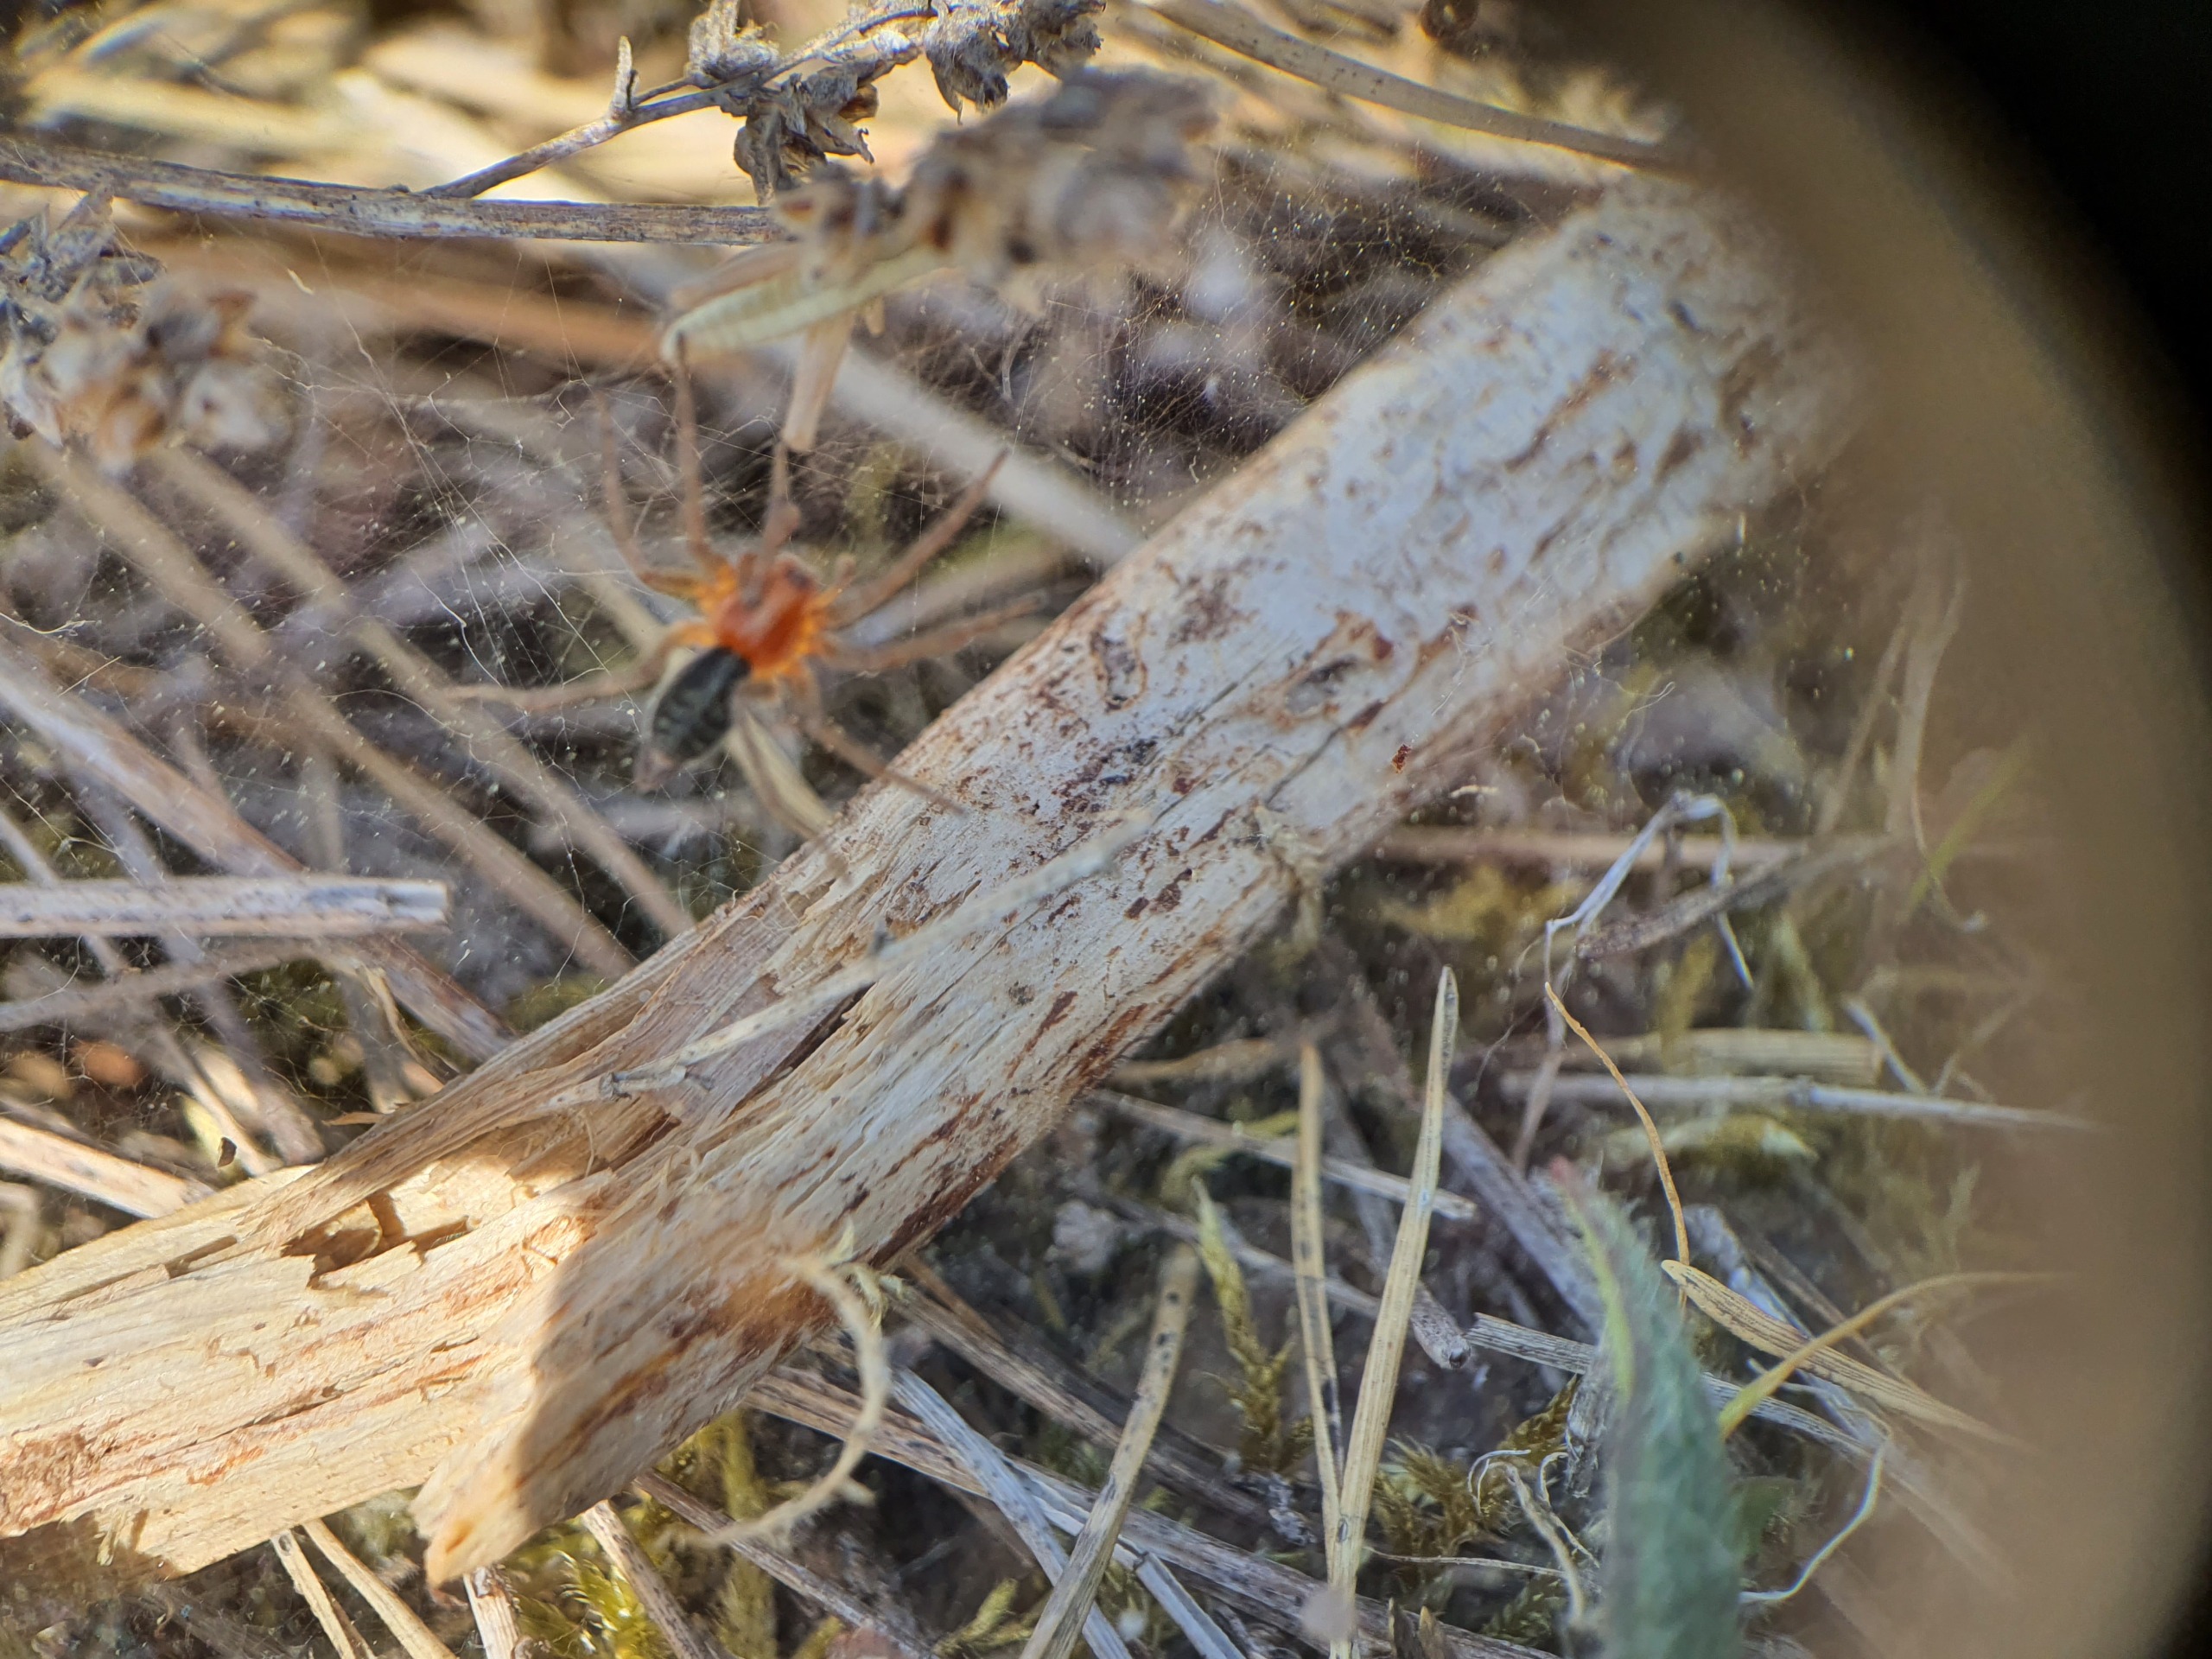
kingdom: Animalia
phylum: Arthropoda
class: Arachnida
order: Araneae
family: Agelenidae
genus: Agelena
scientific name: Agelena labyrinthica
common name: Labyrintedderkop
